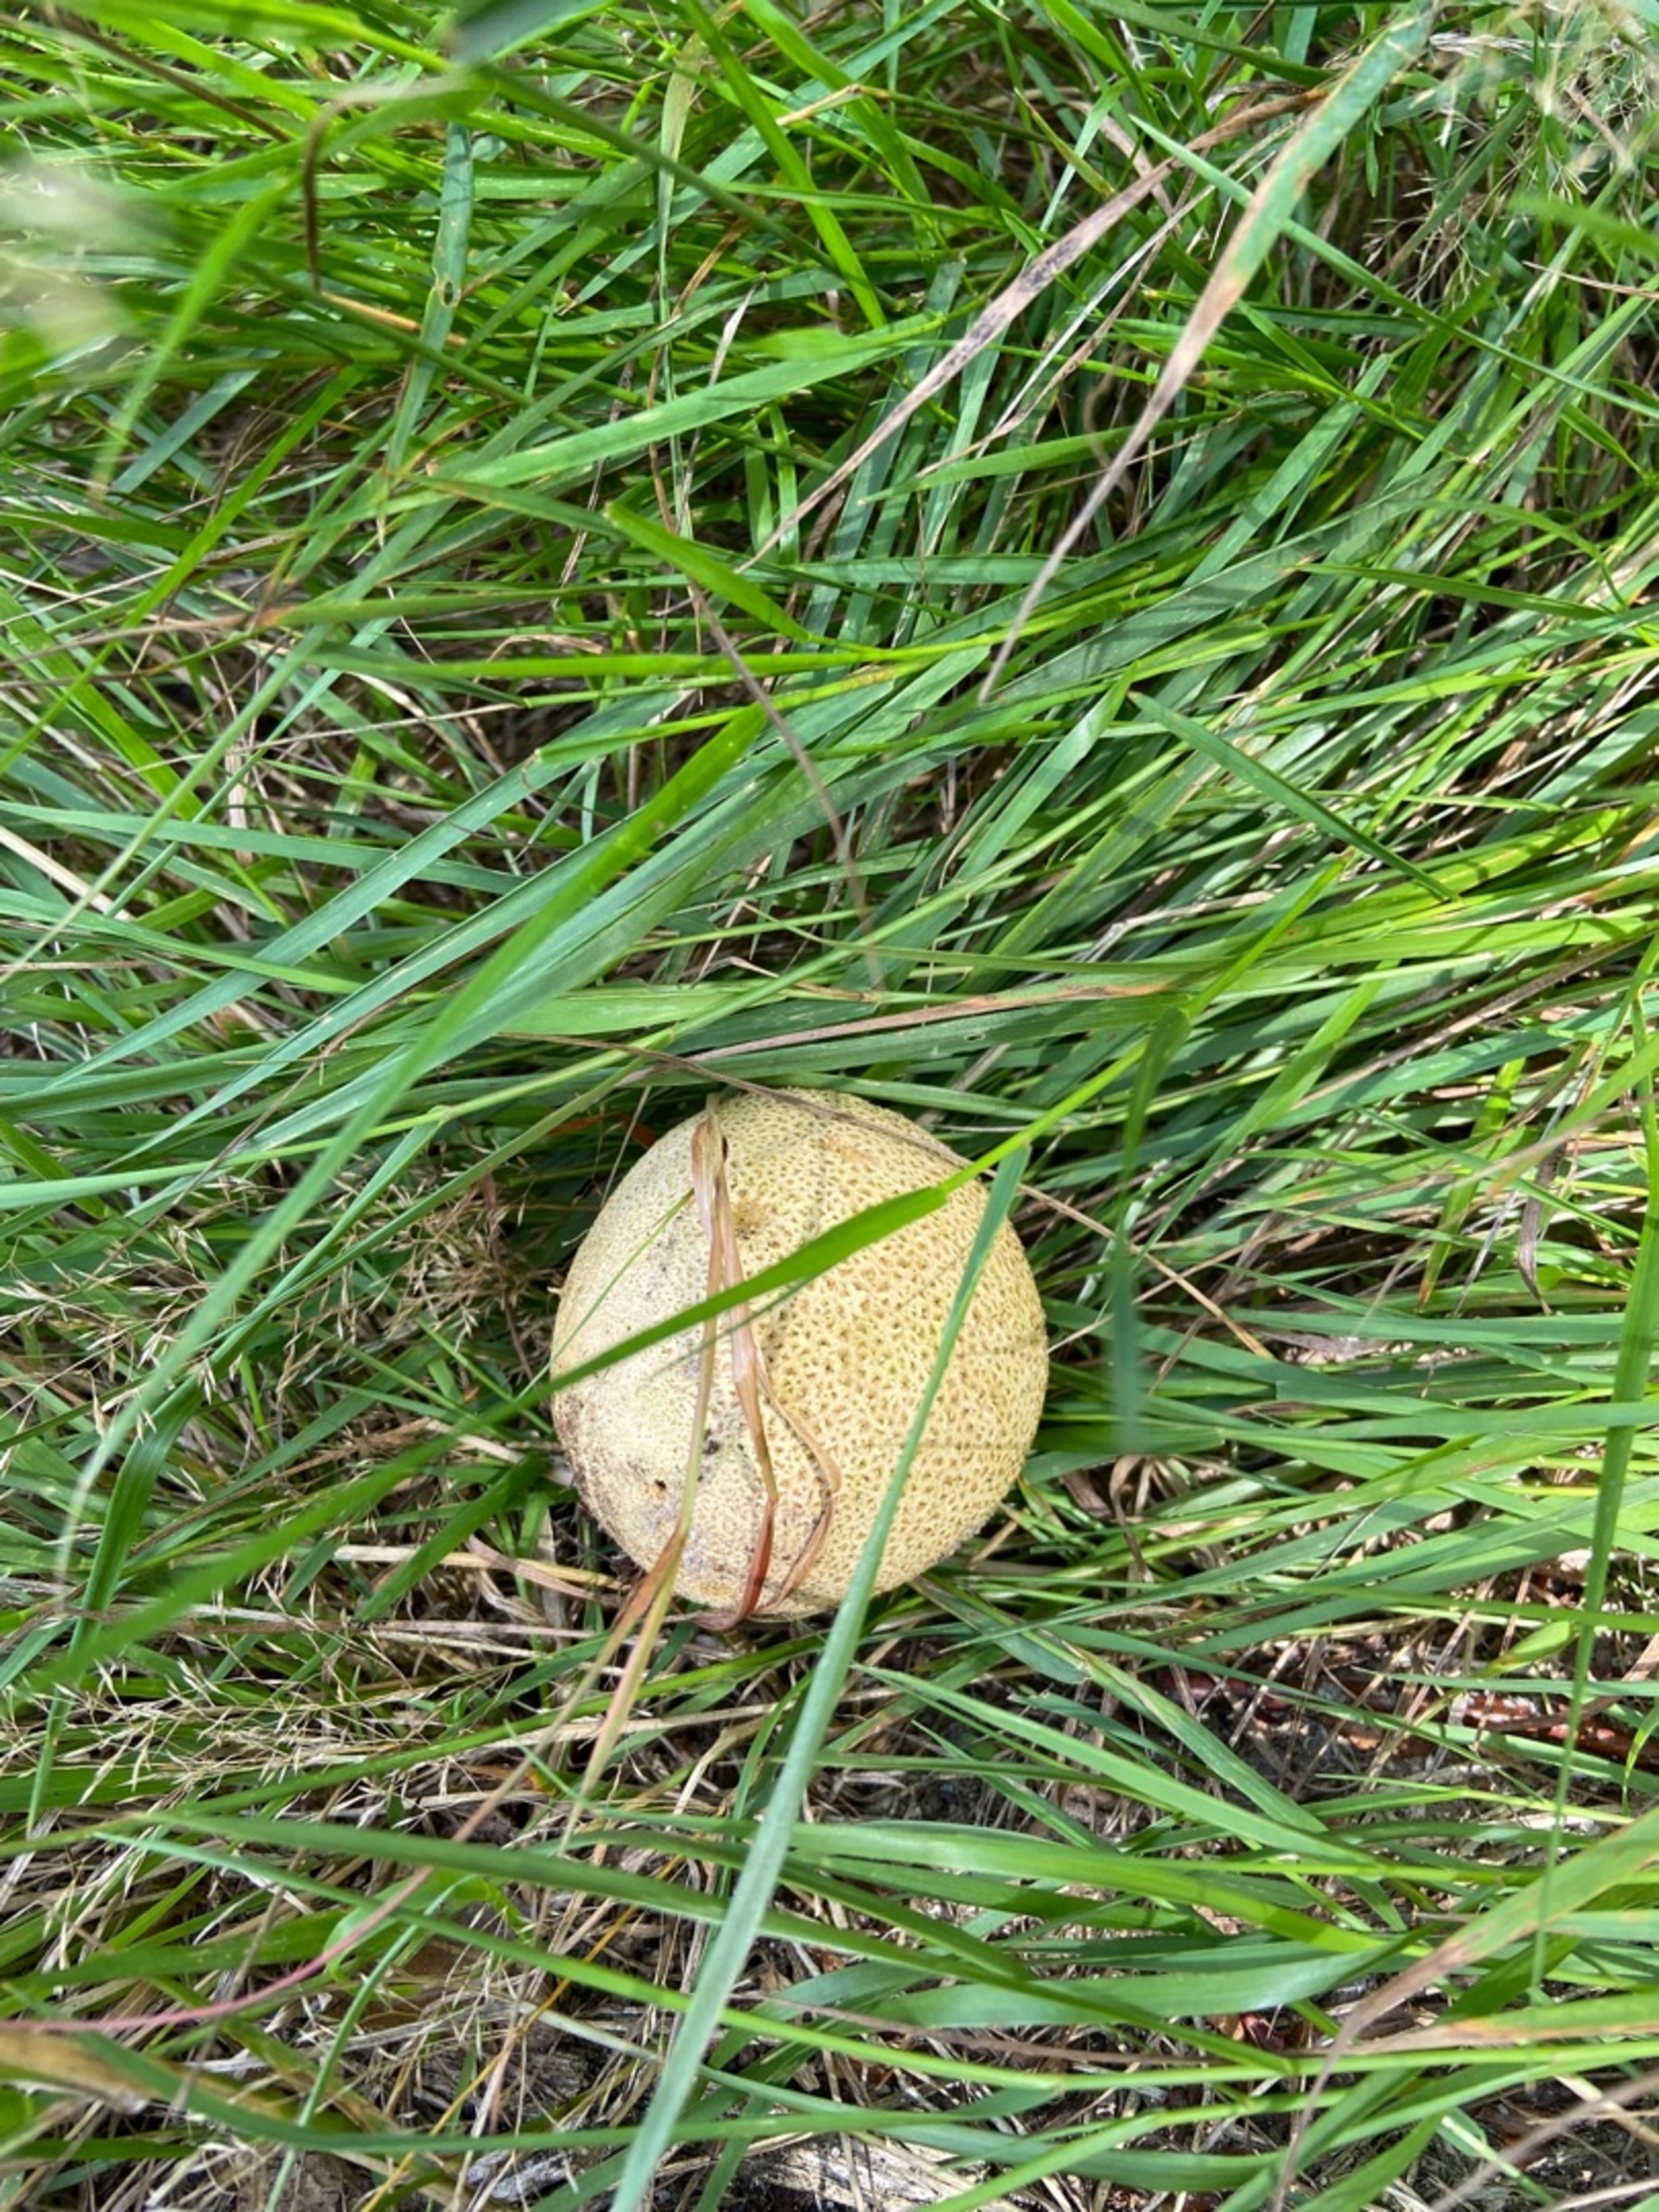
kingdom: Fungi
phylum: Basidiomycota
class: Agaricomycetes
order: Boletales
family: Sclerodermataceae
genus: Scleroderma
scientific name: Scleroderma
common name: Bruskbold
